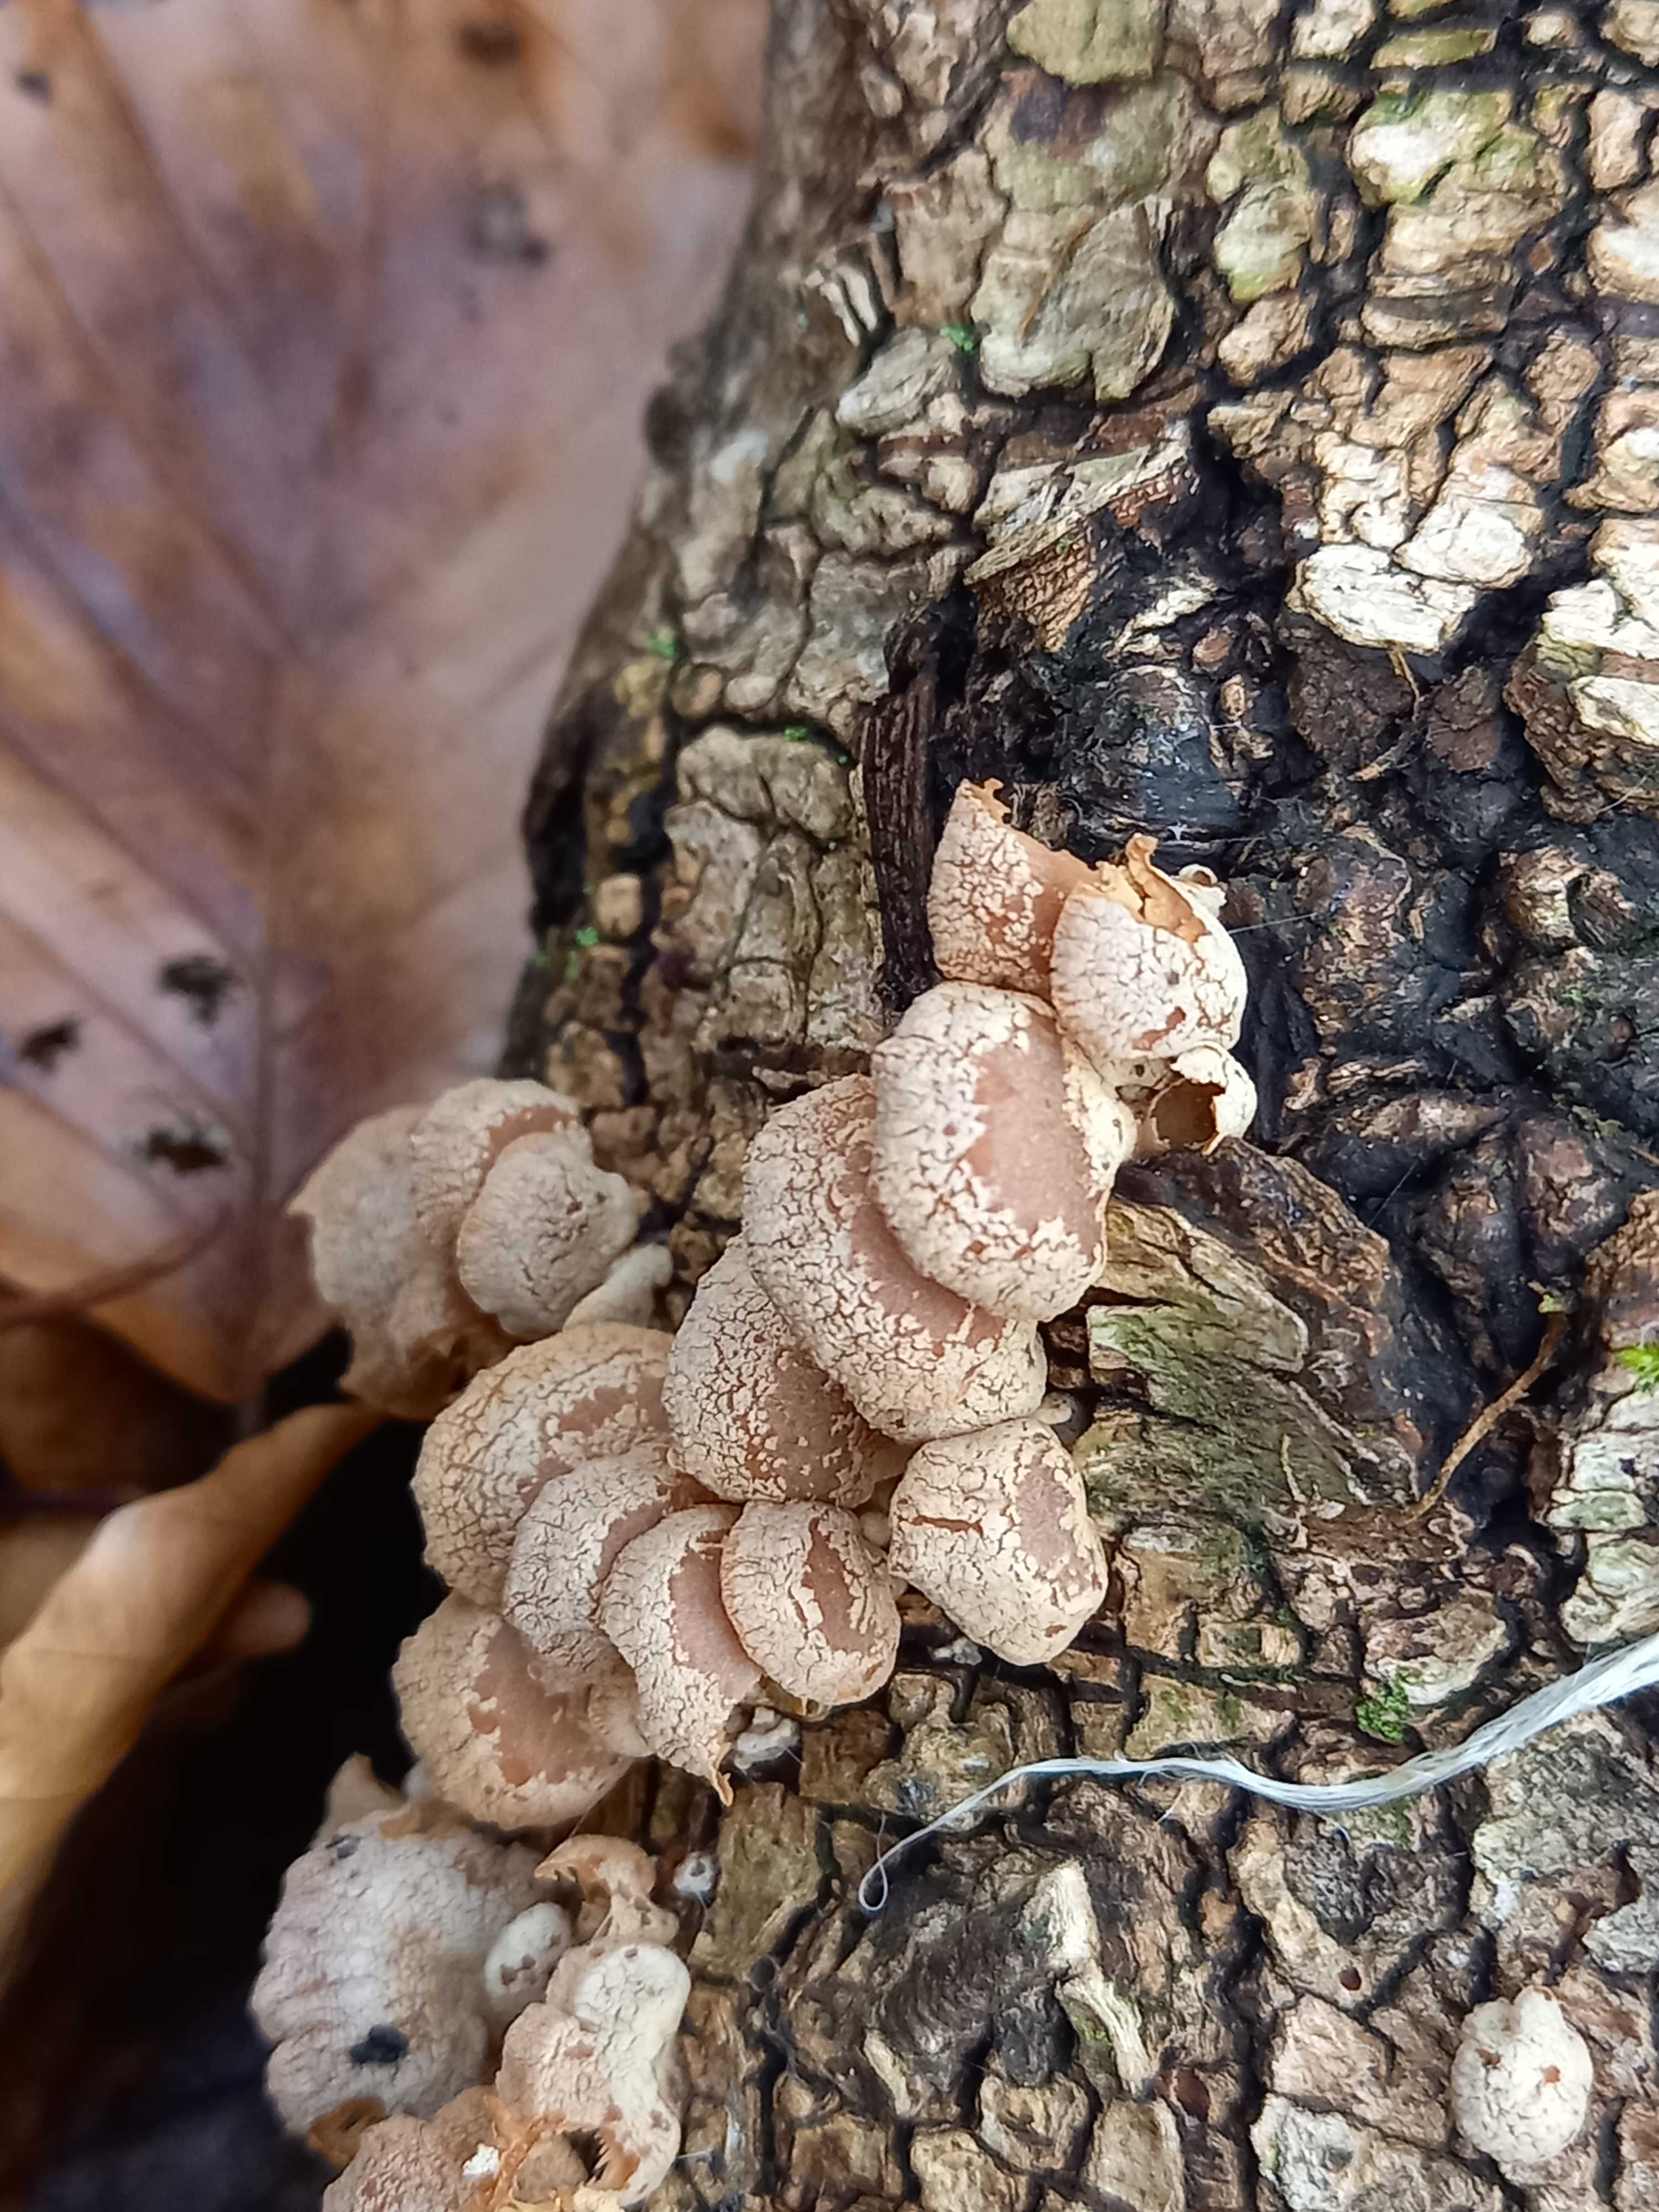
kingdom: Fungi
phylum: Basidiomycota
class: Agaricomycetes
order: Agaricales
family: Mycenaceae
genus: Panellus
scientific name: Panellus stipticus
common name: kliddet epaulethat
